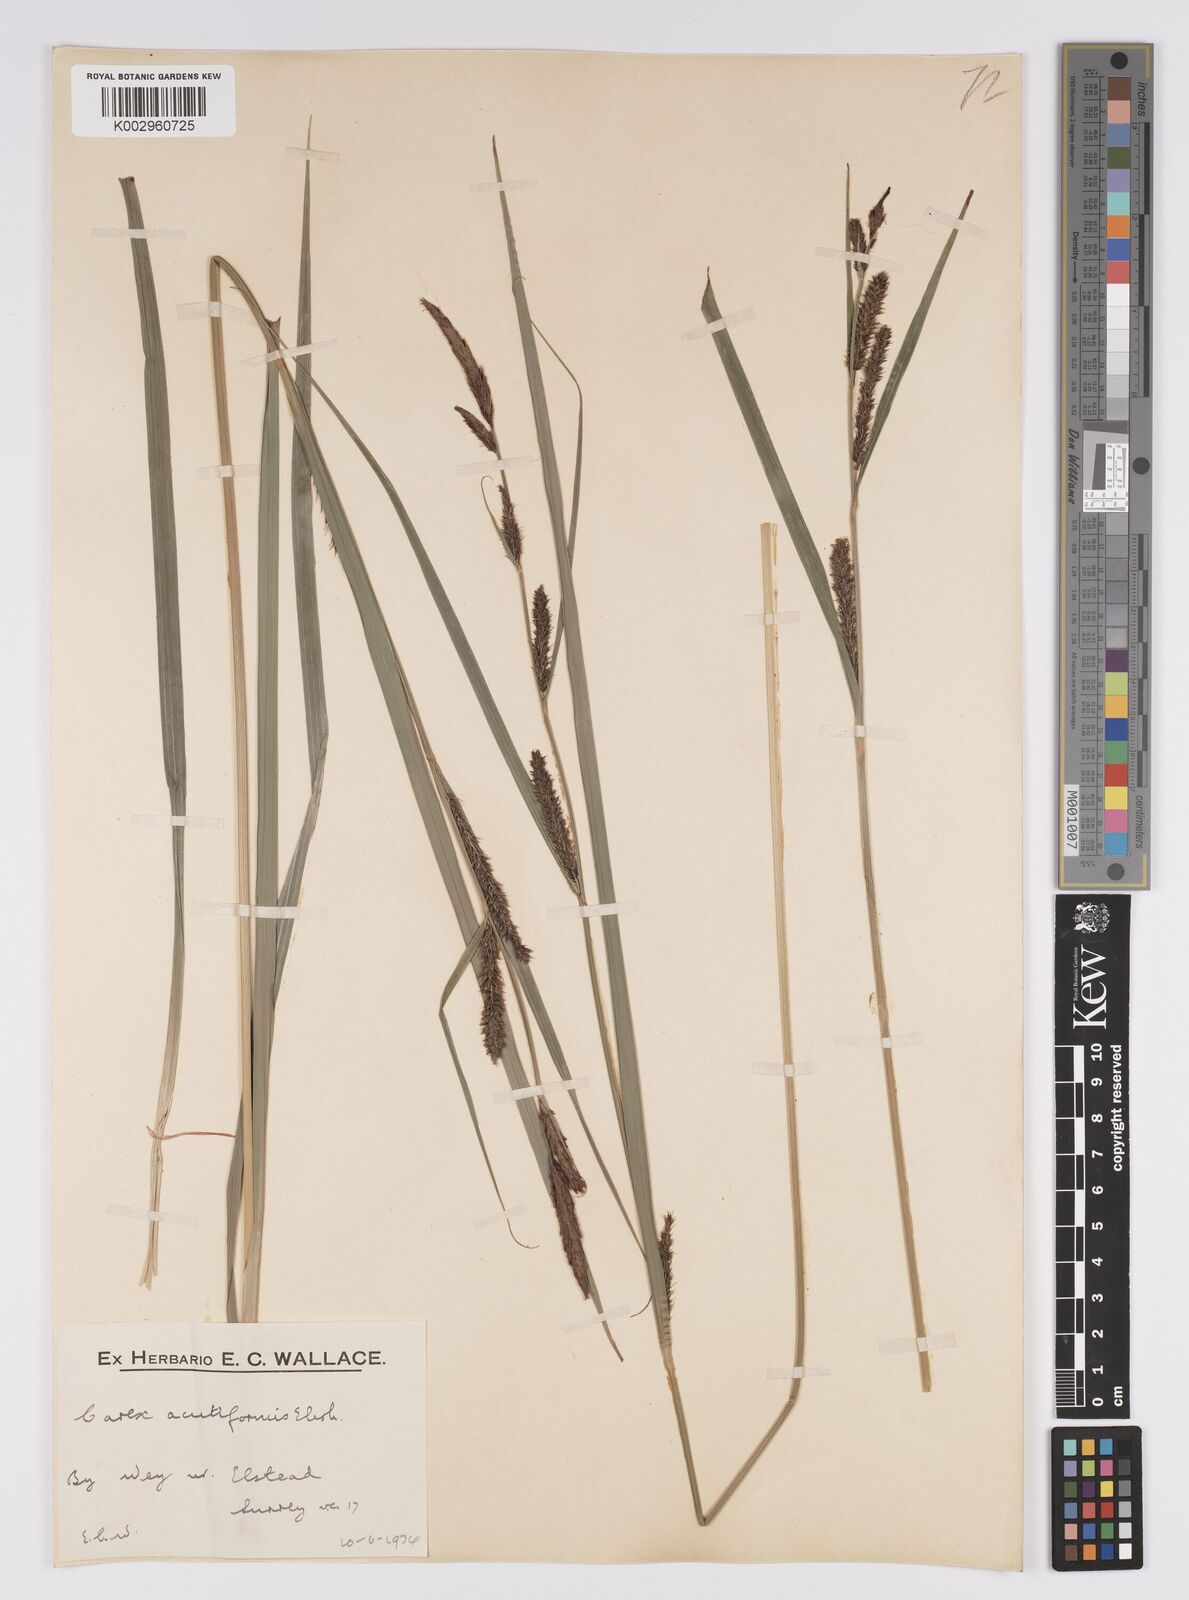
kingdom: Plantae
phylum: Tracheophyta
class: Liliopsida
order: Poales
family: Cyperaceae
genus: Carex
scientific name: Carex acutiformis
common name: Lesser pond-sedge
